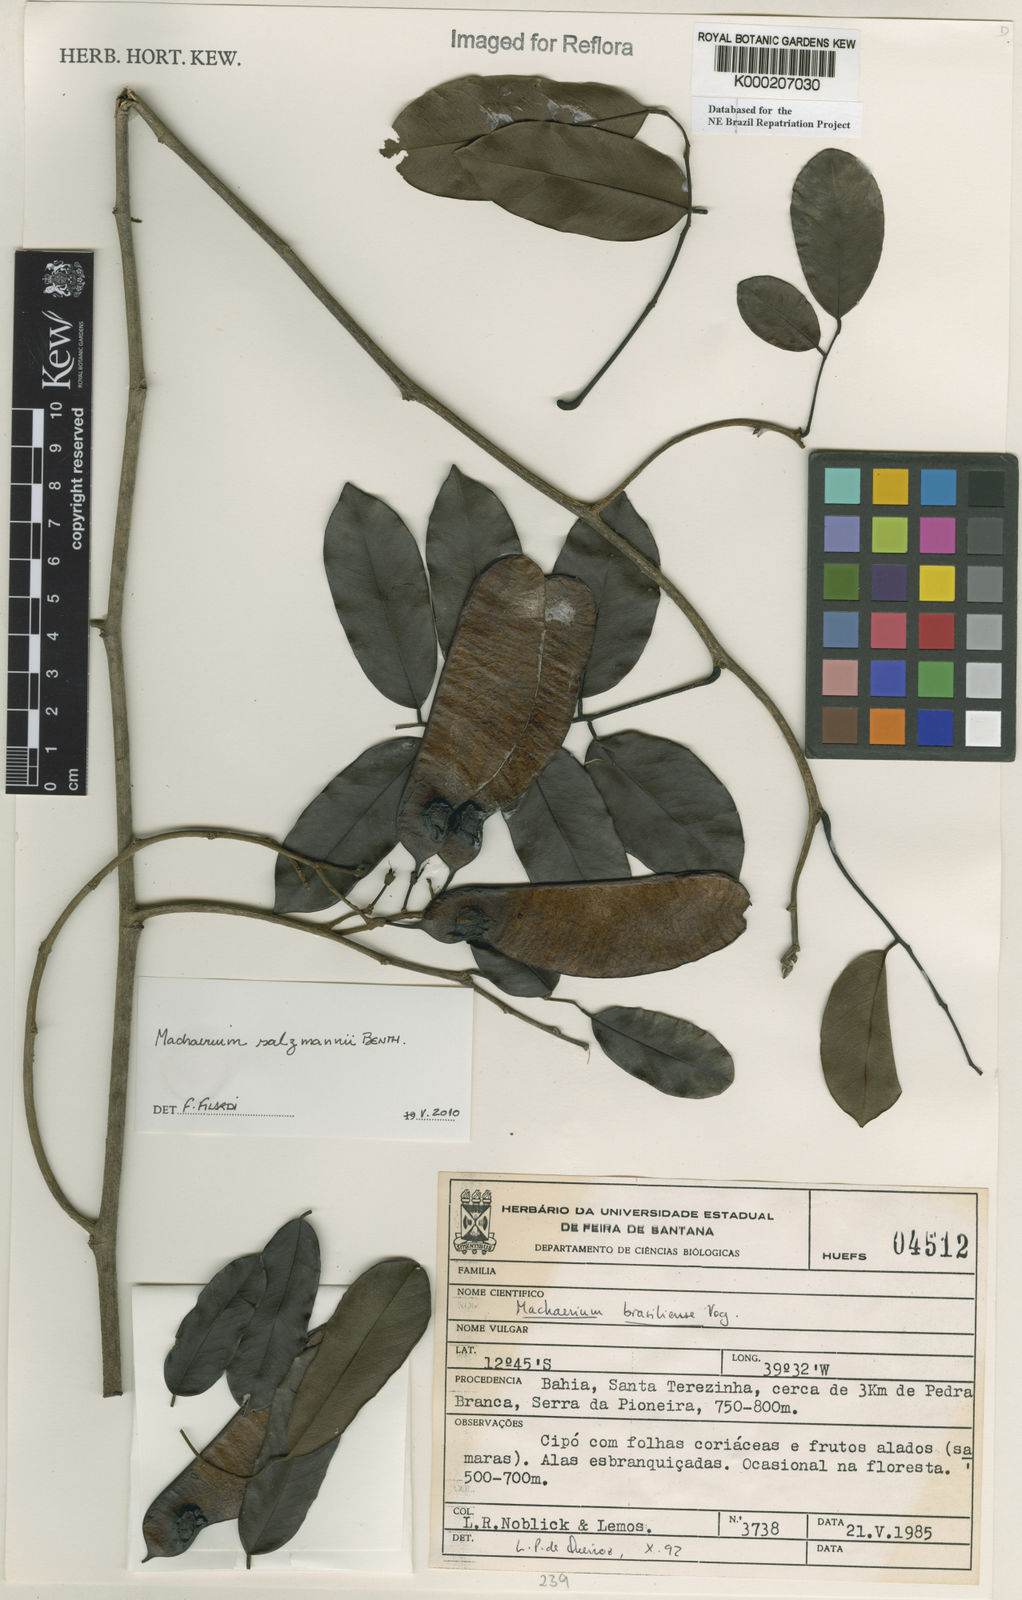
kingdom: Plantae
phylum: Tracheophyta
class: Magnoliopsida
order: Fabales
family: Fabaceae
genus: Machaerium
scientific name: Machaerium brasiliense
